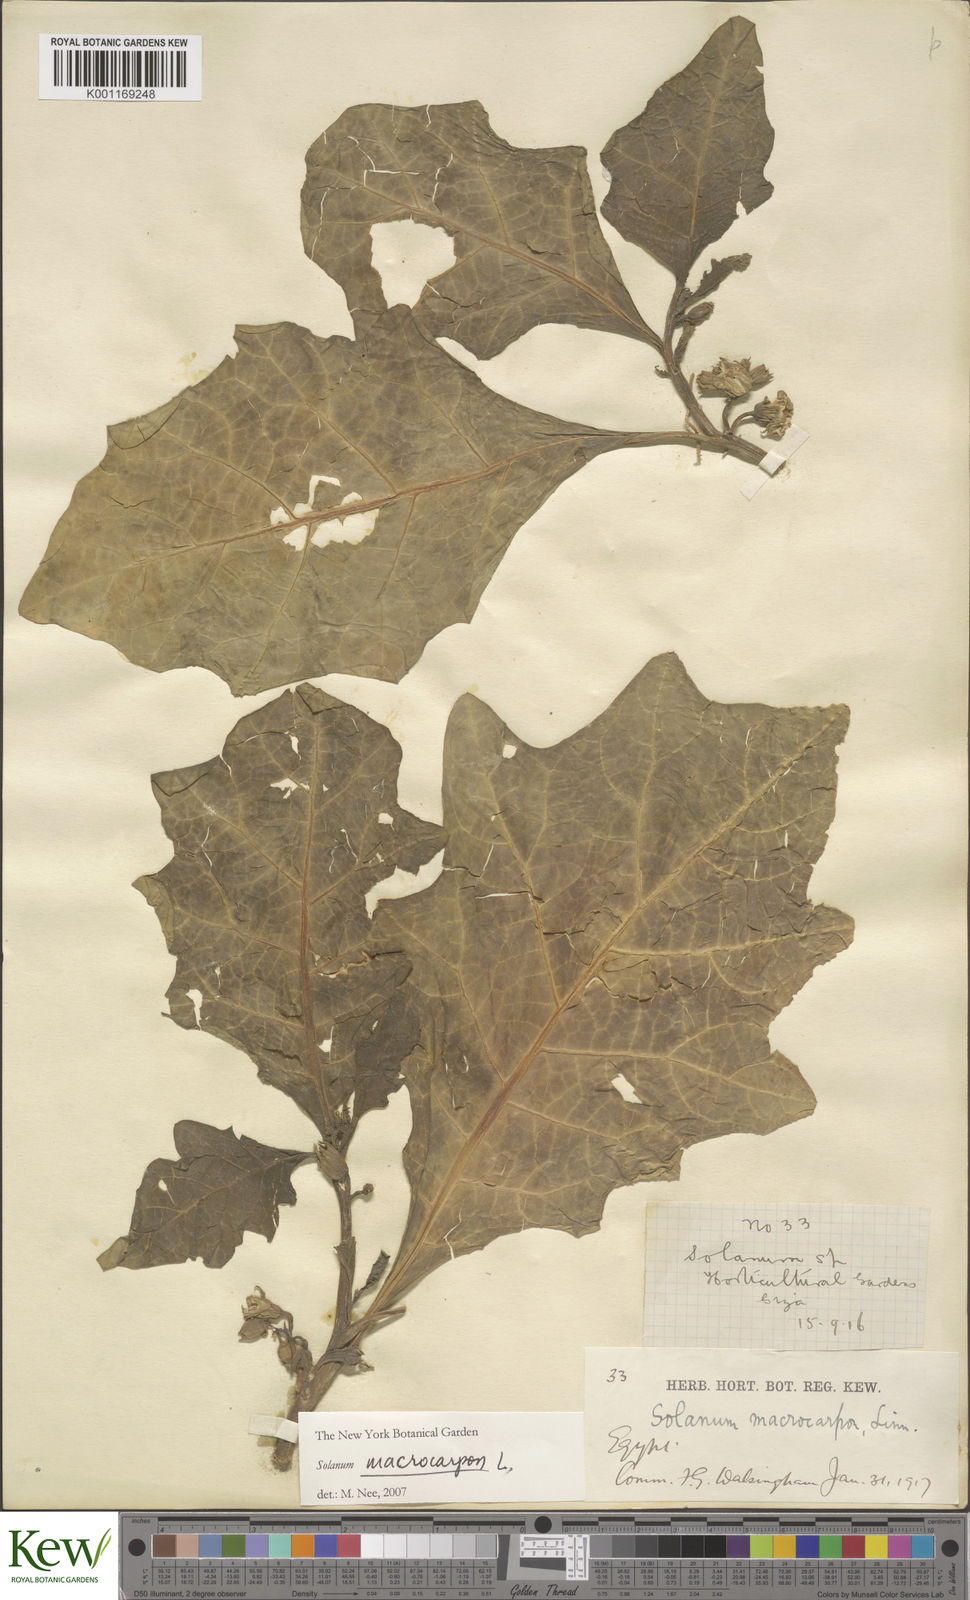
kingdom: Plantae
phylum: Tracheophyta
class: Magnoliopsida
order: Solanales
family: Solanaceae
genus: Solanum
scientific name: Solanum macrocarpon
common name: African eggplant
